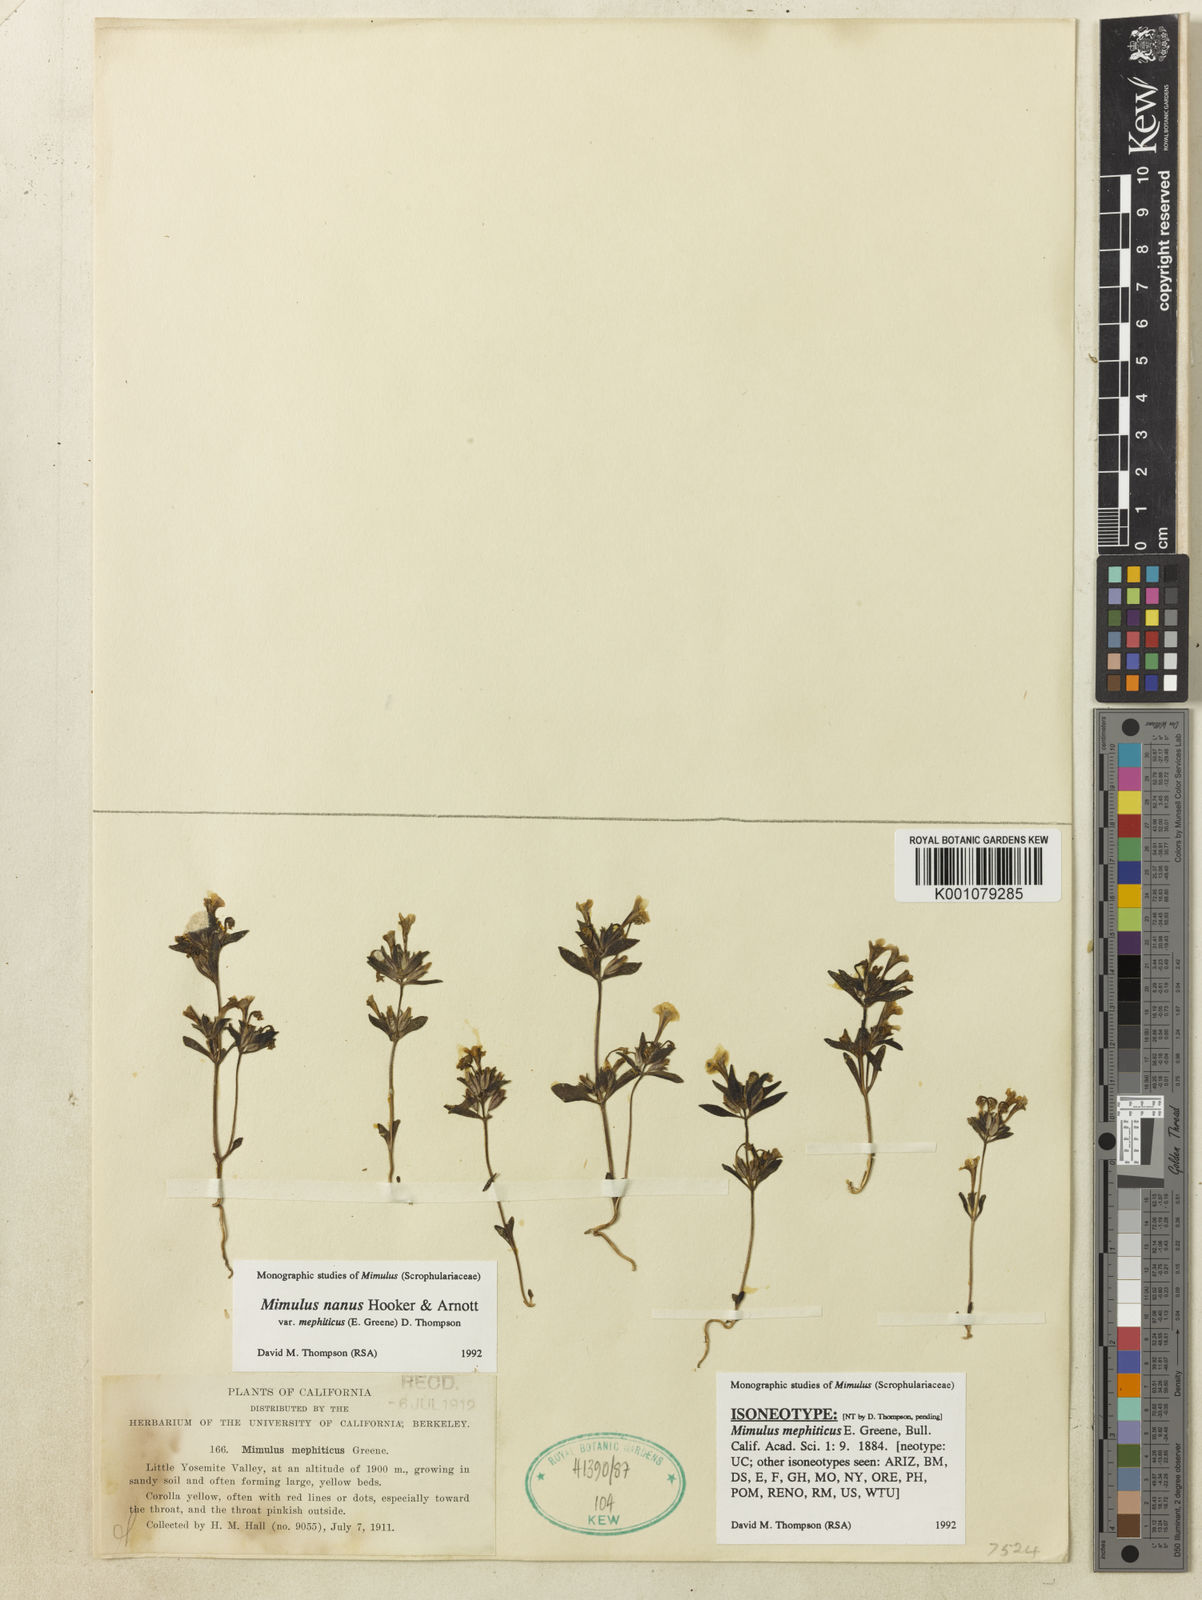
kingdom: Plantae
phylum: Tracheophyta
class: Magnoliopsida
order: Lamiales
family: Phrymaceae
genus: Diplacus
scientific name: Diplacus mephiticus
